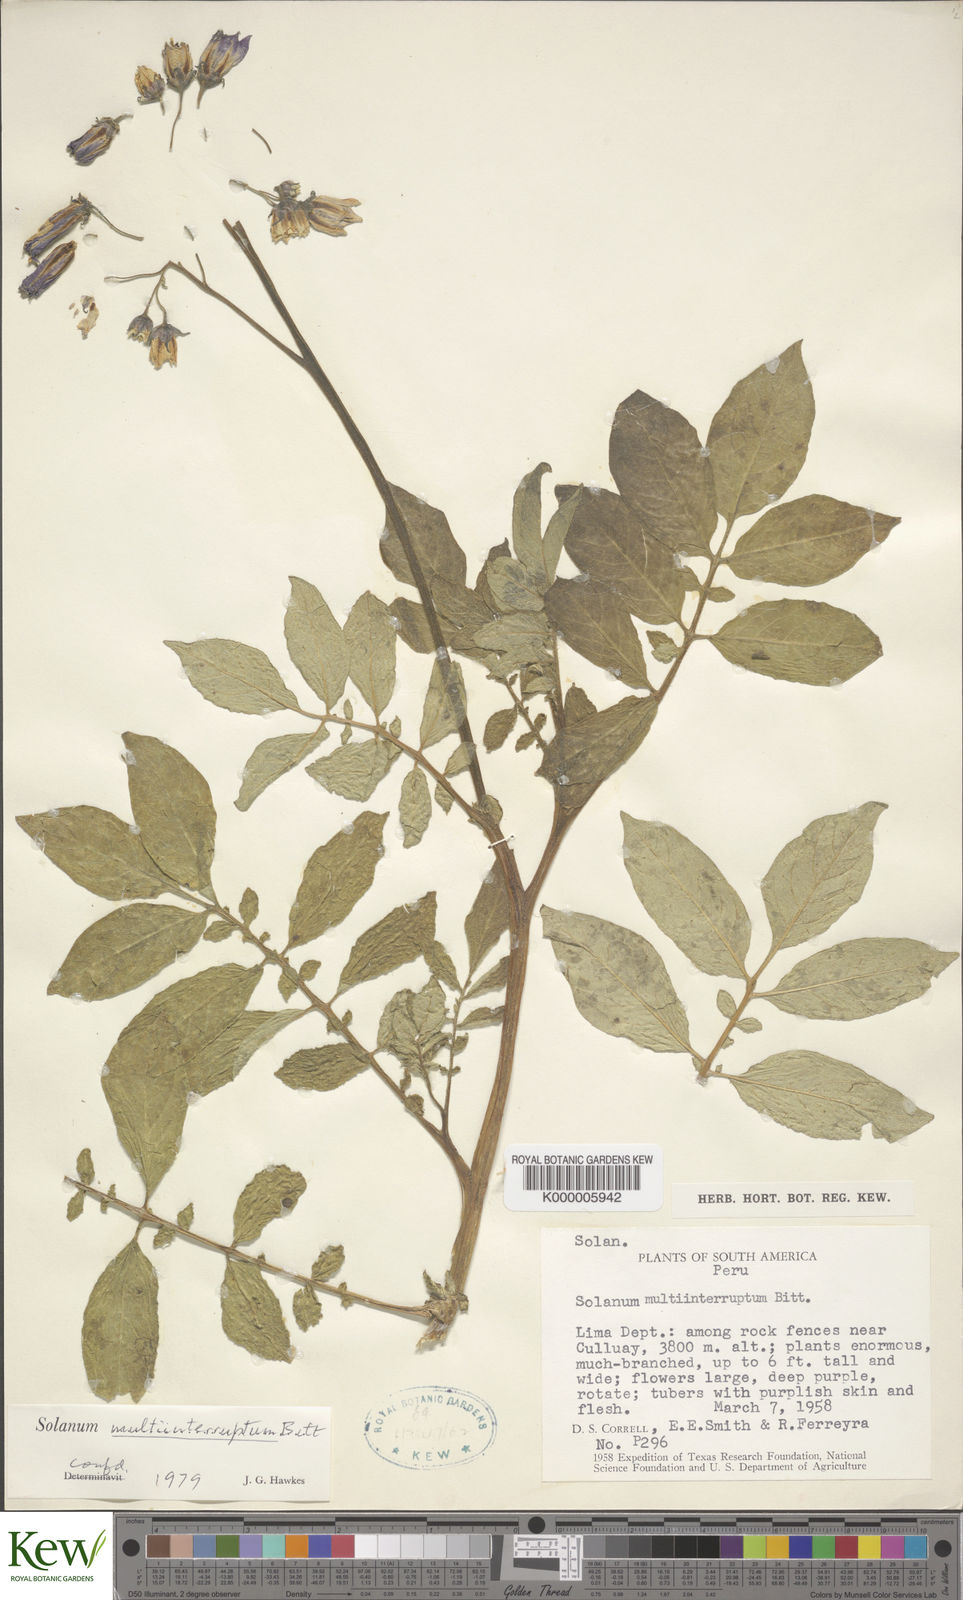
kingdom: Plantae
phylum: Tracheophyta
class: Magnoliopsida
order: Solanales
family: Solanaceae
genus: Solanum
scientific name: Solanum candolleanum
